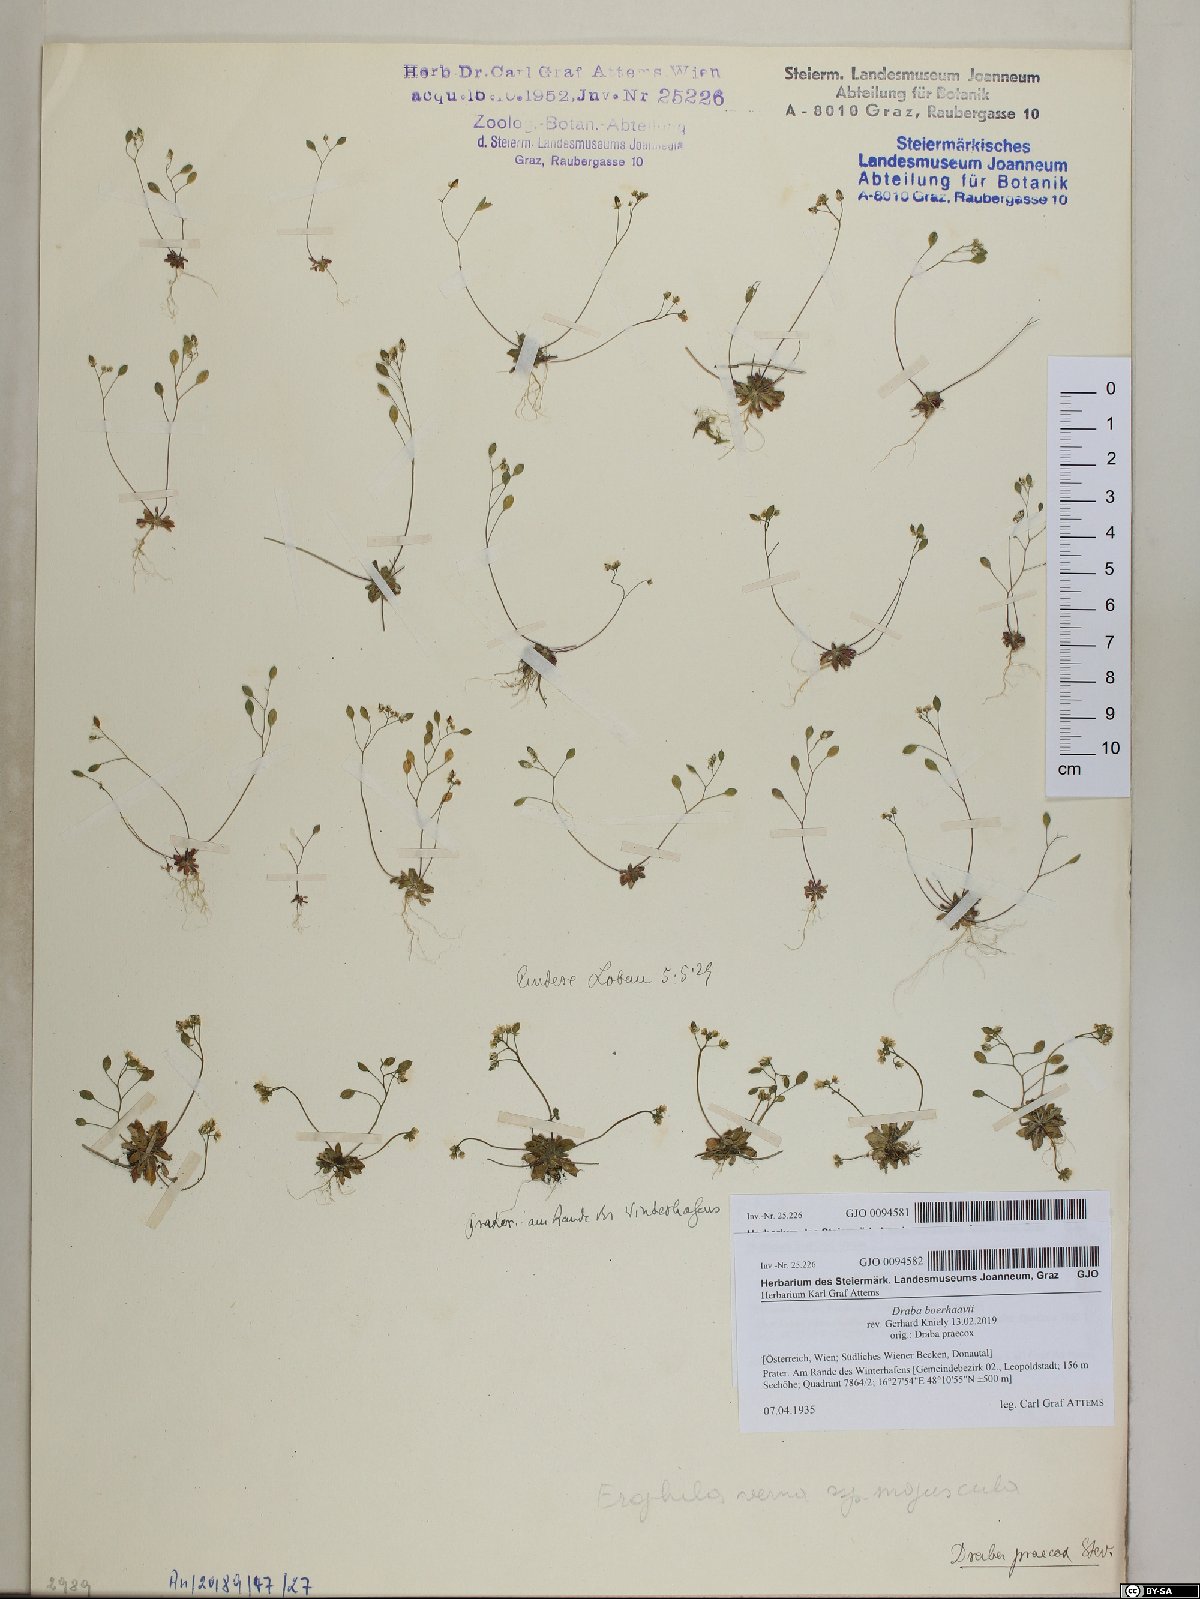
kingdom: Plantae
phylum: Tracheophyta
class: Magnoliopsida
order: Brassicales
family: Brassicaceae
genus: Draba
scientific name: Draba verna
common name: Spring draba
